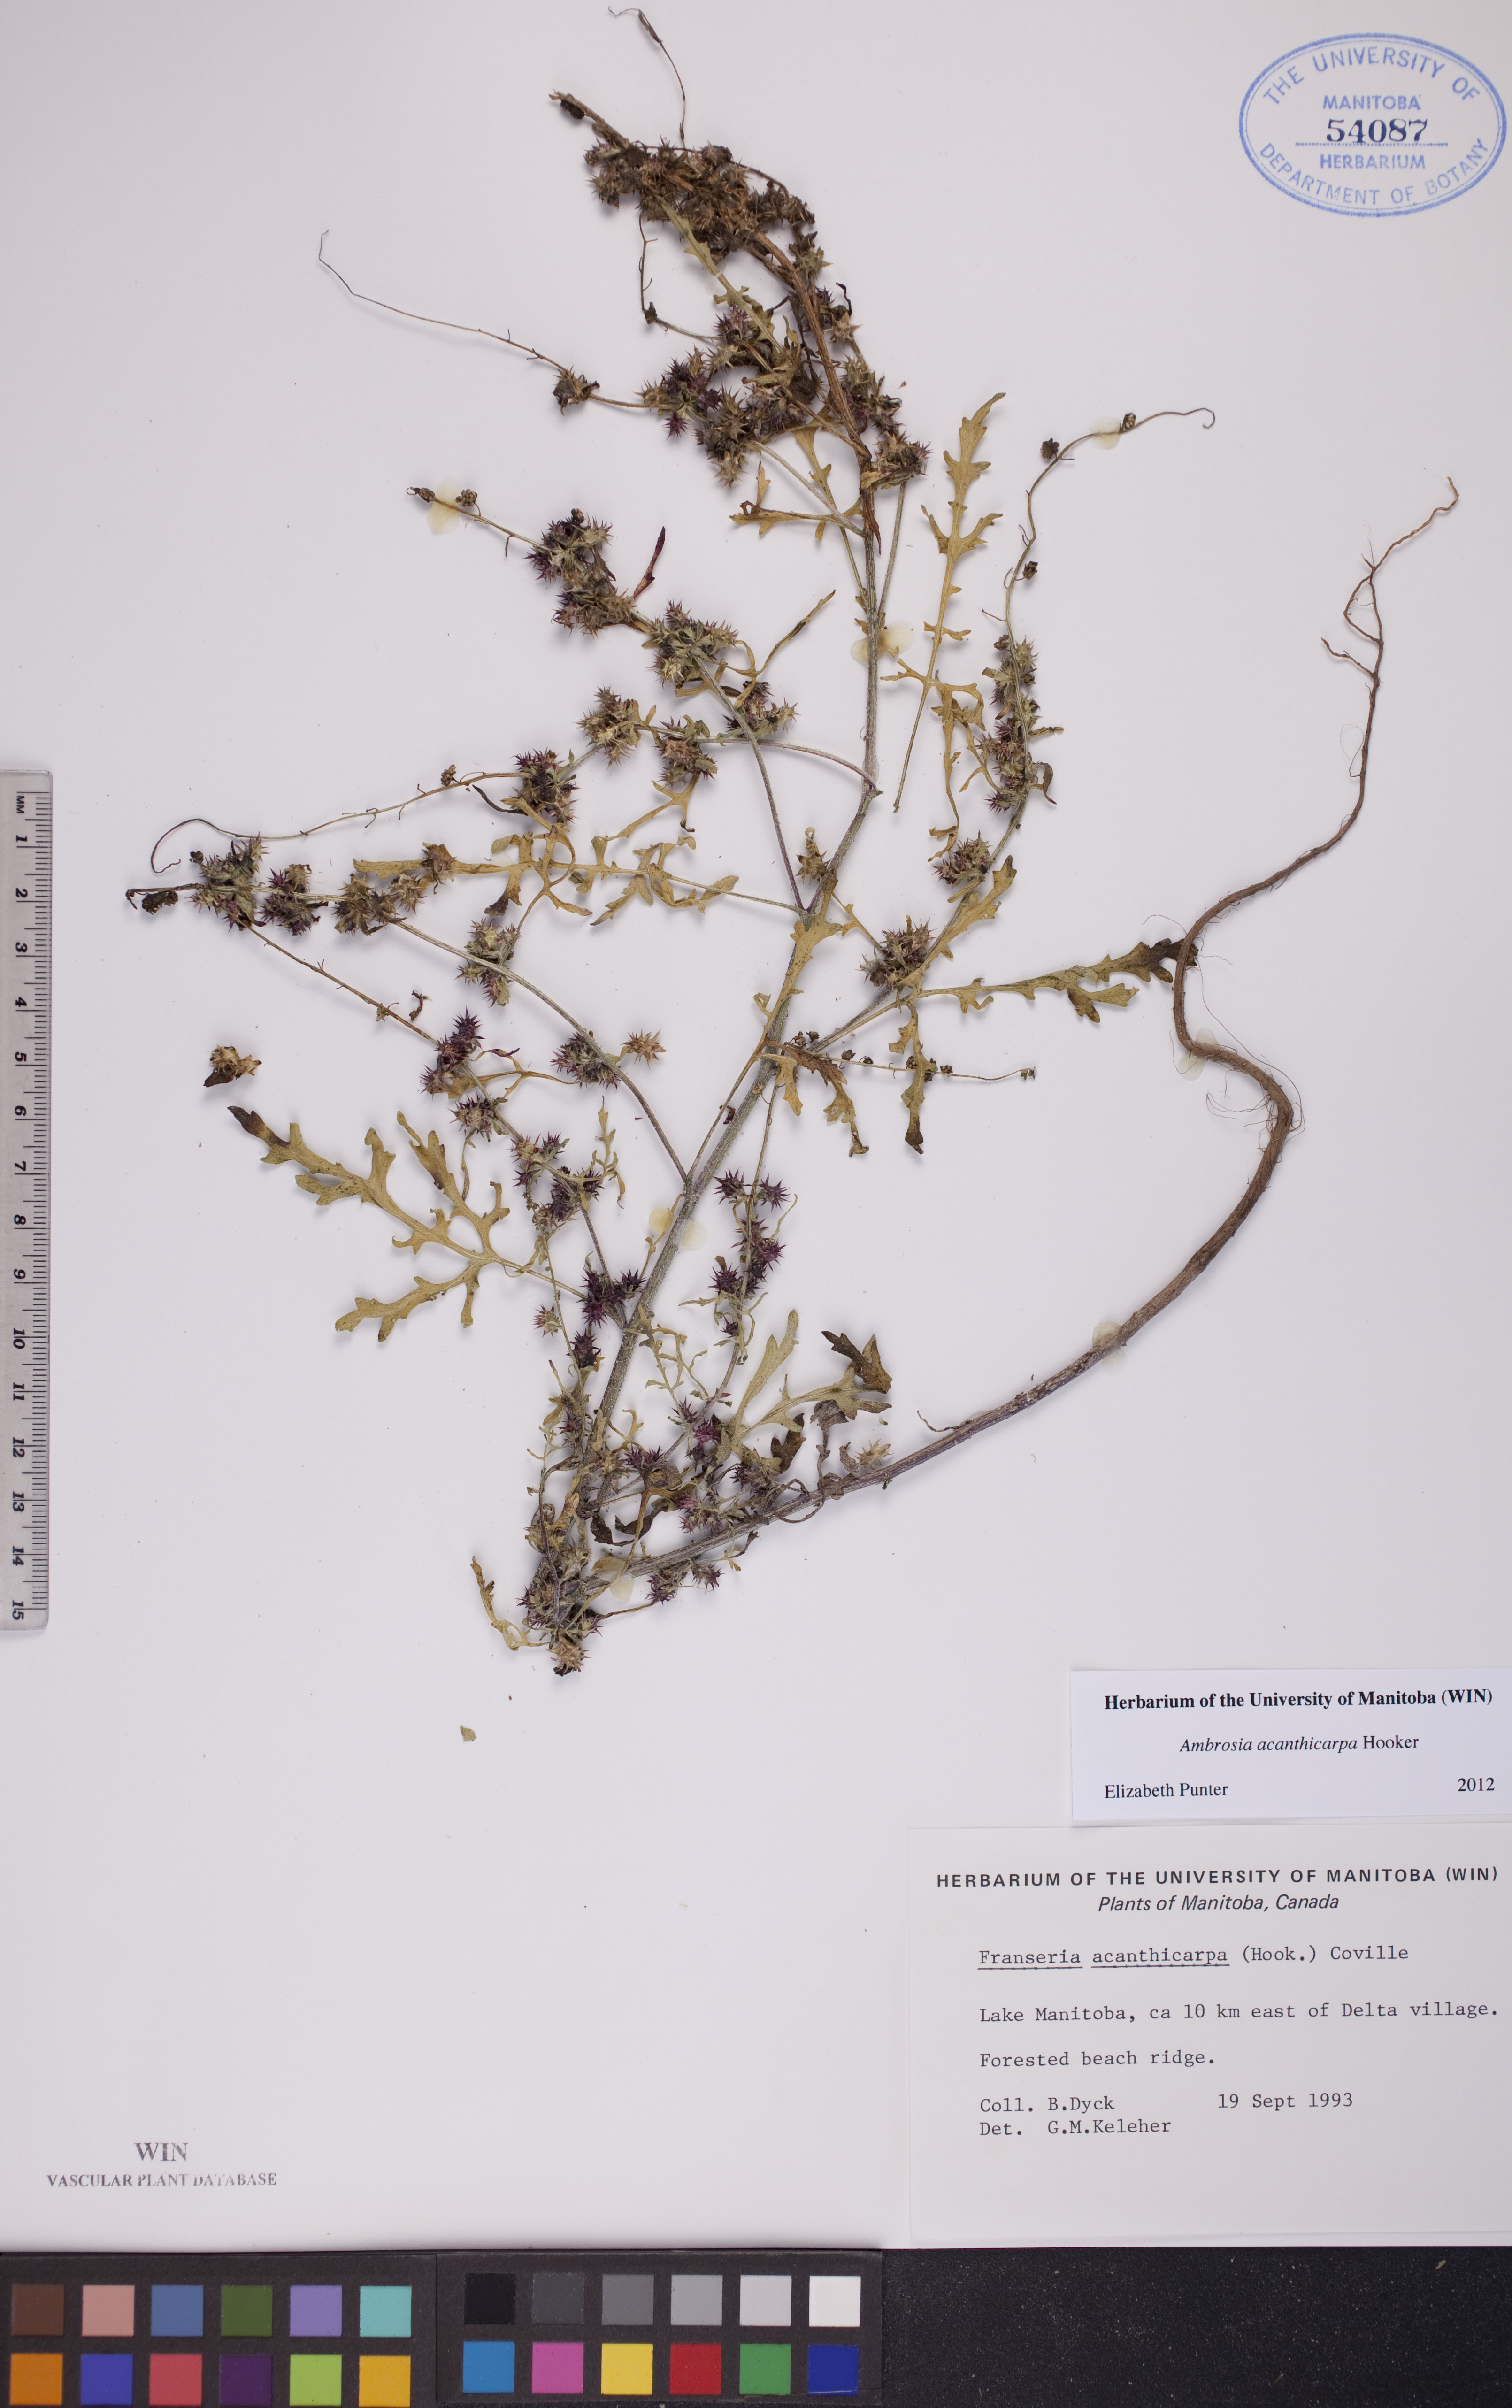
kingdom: Plantae
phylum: Tracheophyta
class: Magnoliopsida
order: Asterales
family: Asteraceae
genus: Ambrosia
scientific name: Ambrosia acanthicarpa
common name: Hooker's bur ragweed
